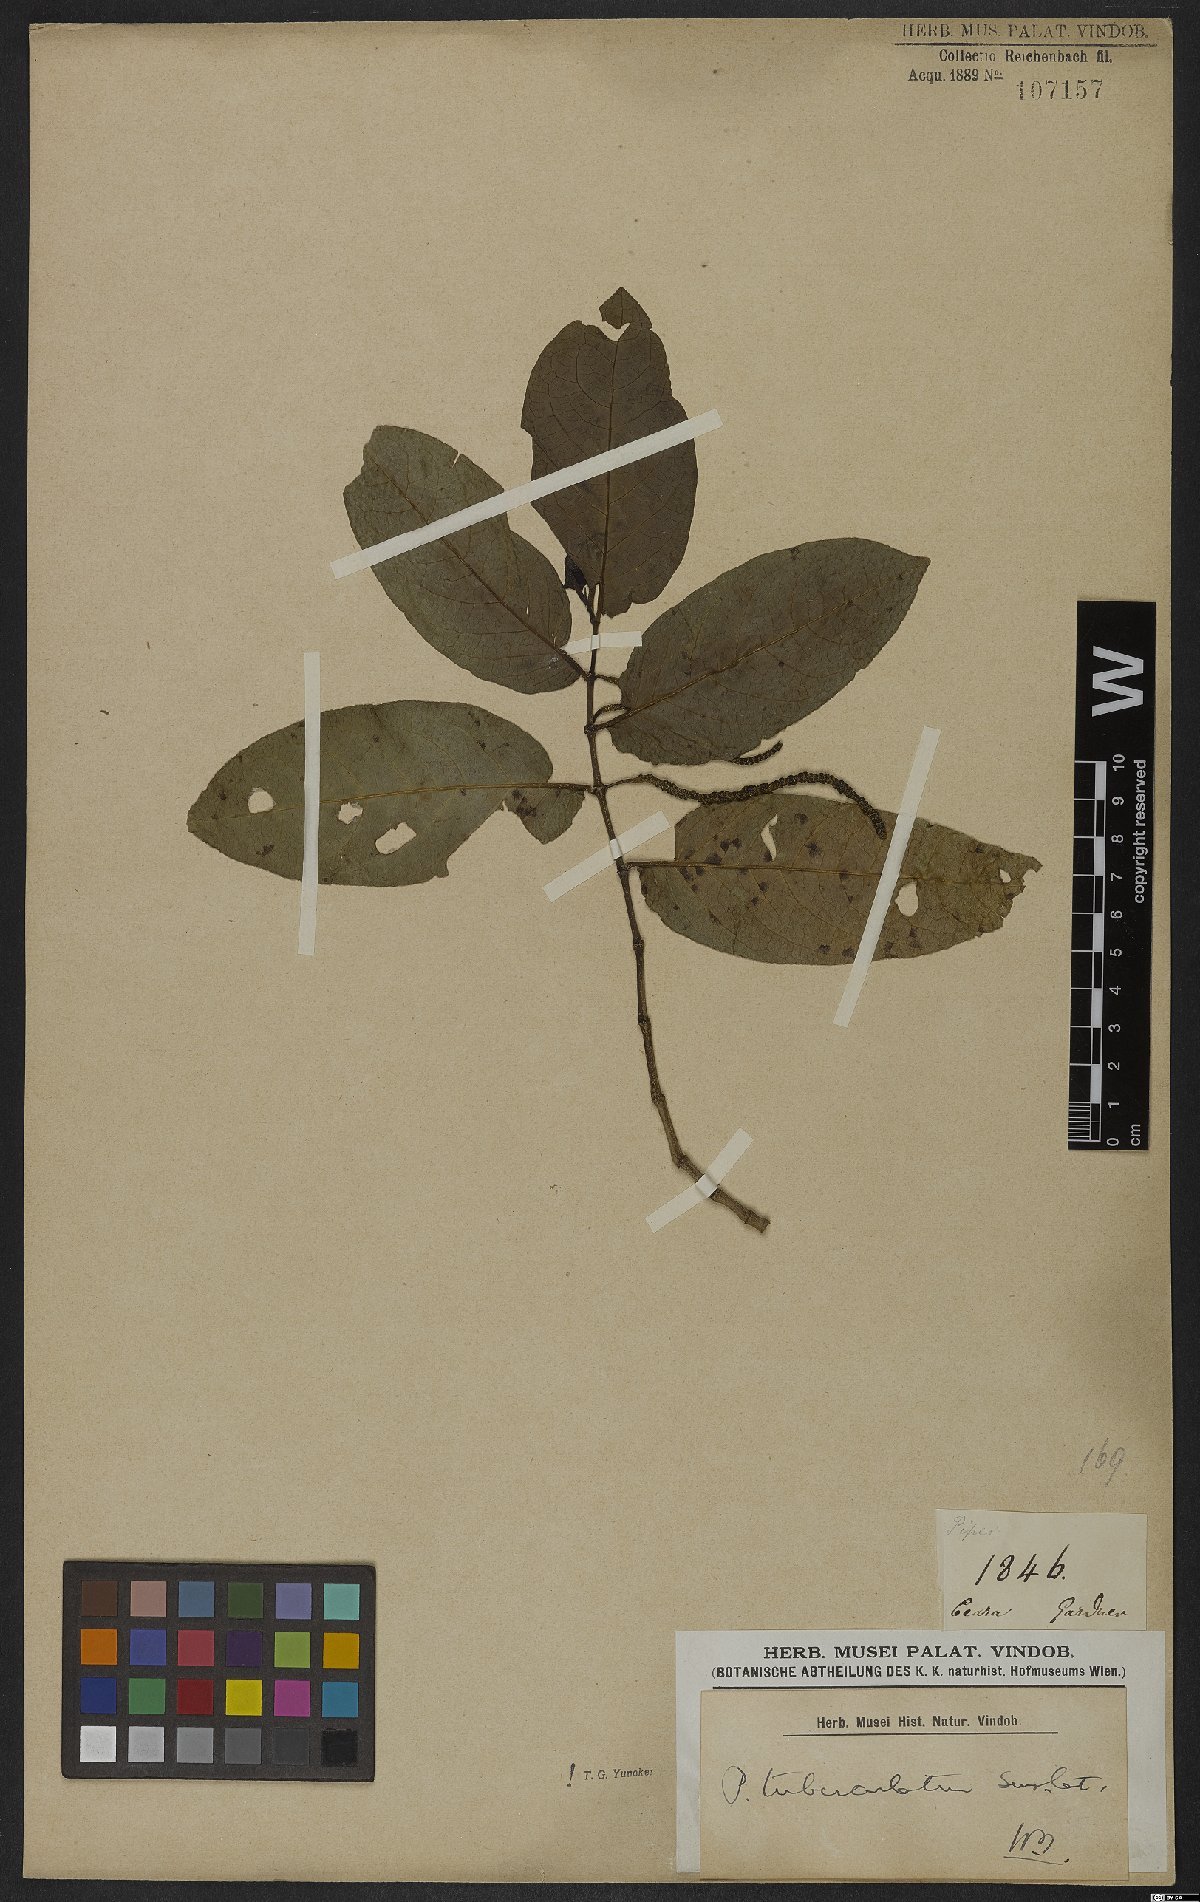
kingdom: Plantae
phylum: Tracheophyta
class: Magnoliopsida
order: Piperales
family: Piperaceae
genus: Piper
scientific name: Piper tuberculatum
